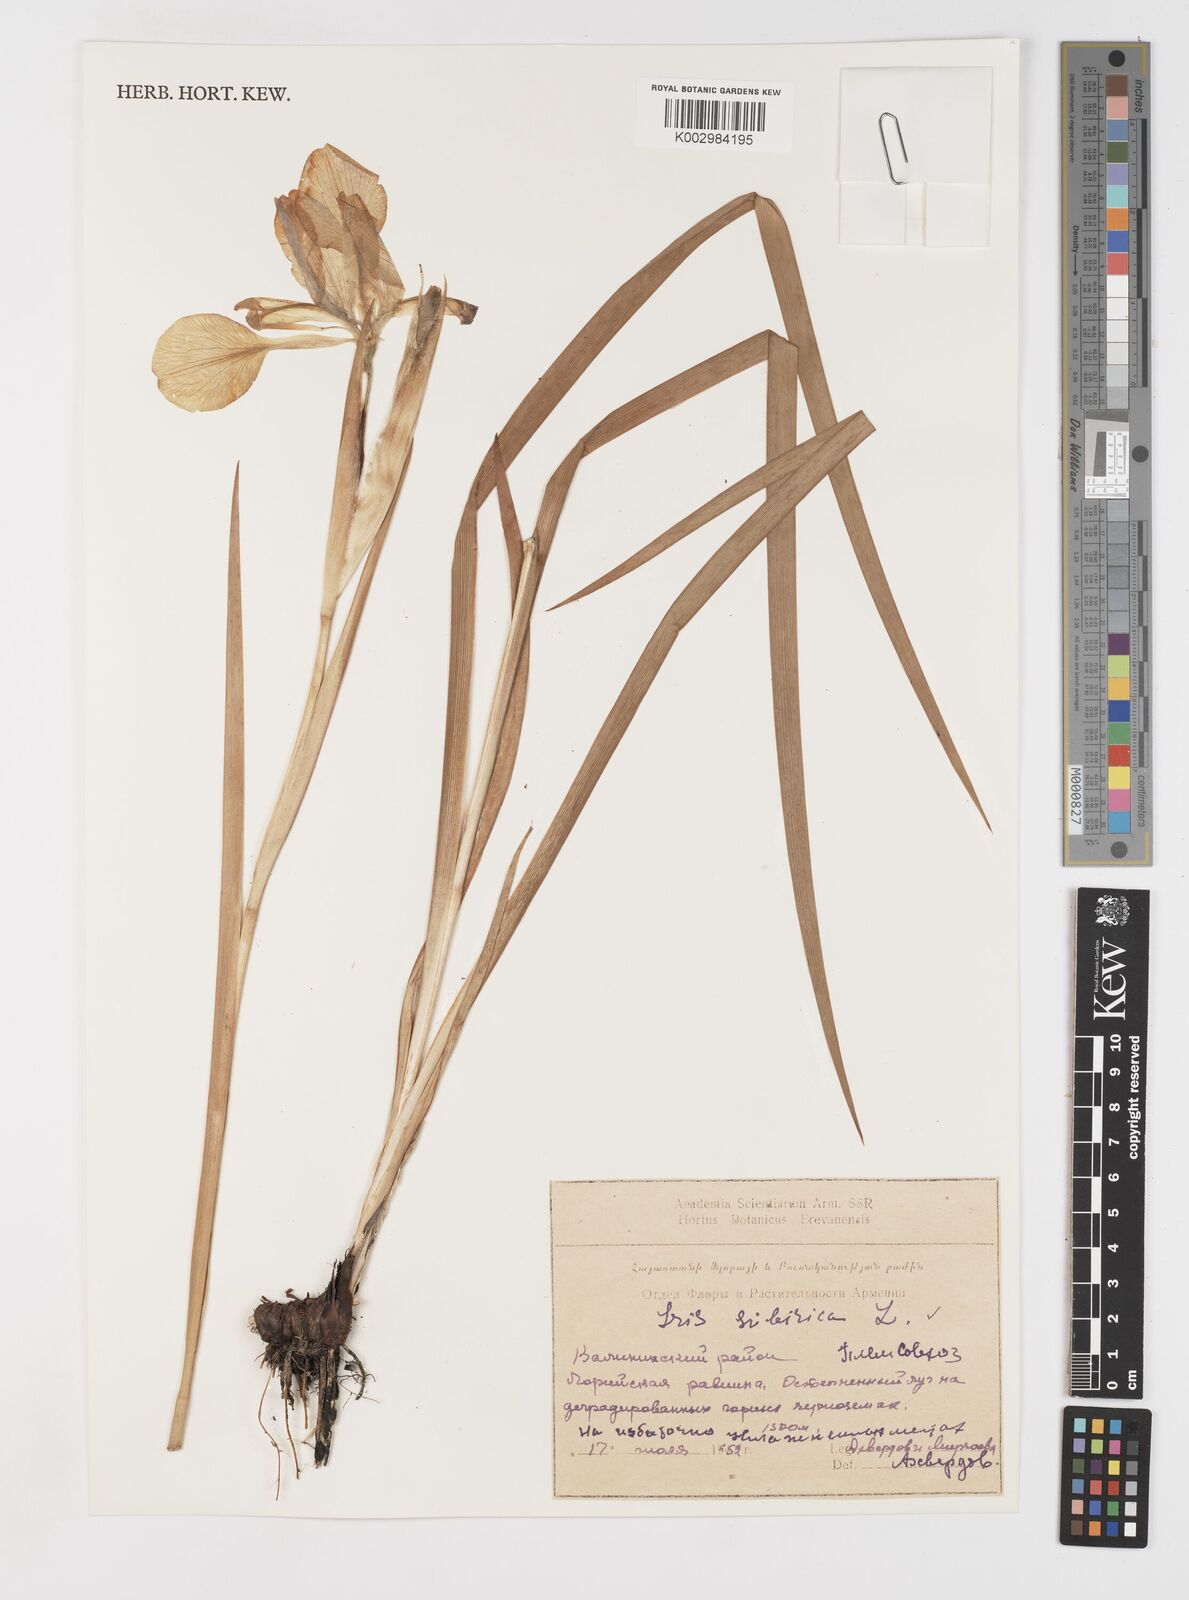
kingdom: Plantae
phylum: Tracheophyta
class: Liliopsida
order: Asparagales
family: Iridaceae
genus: Iris
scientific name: Iris sibirica
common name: Siberian iris
